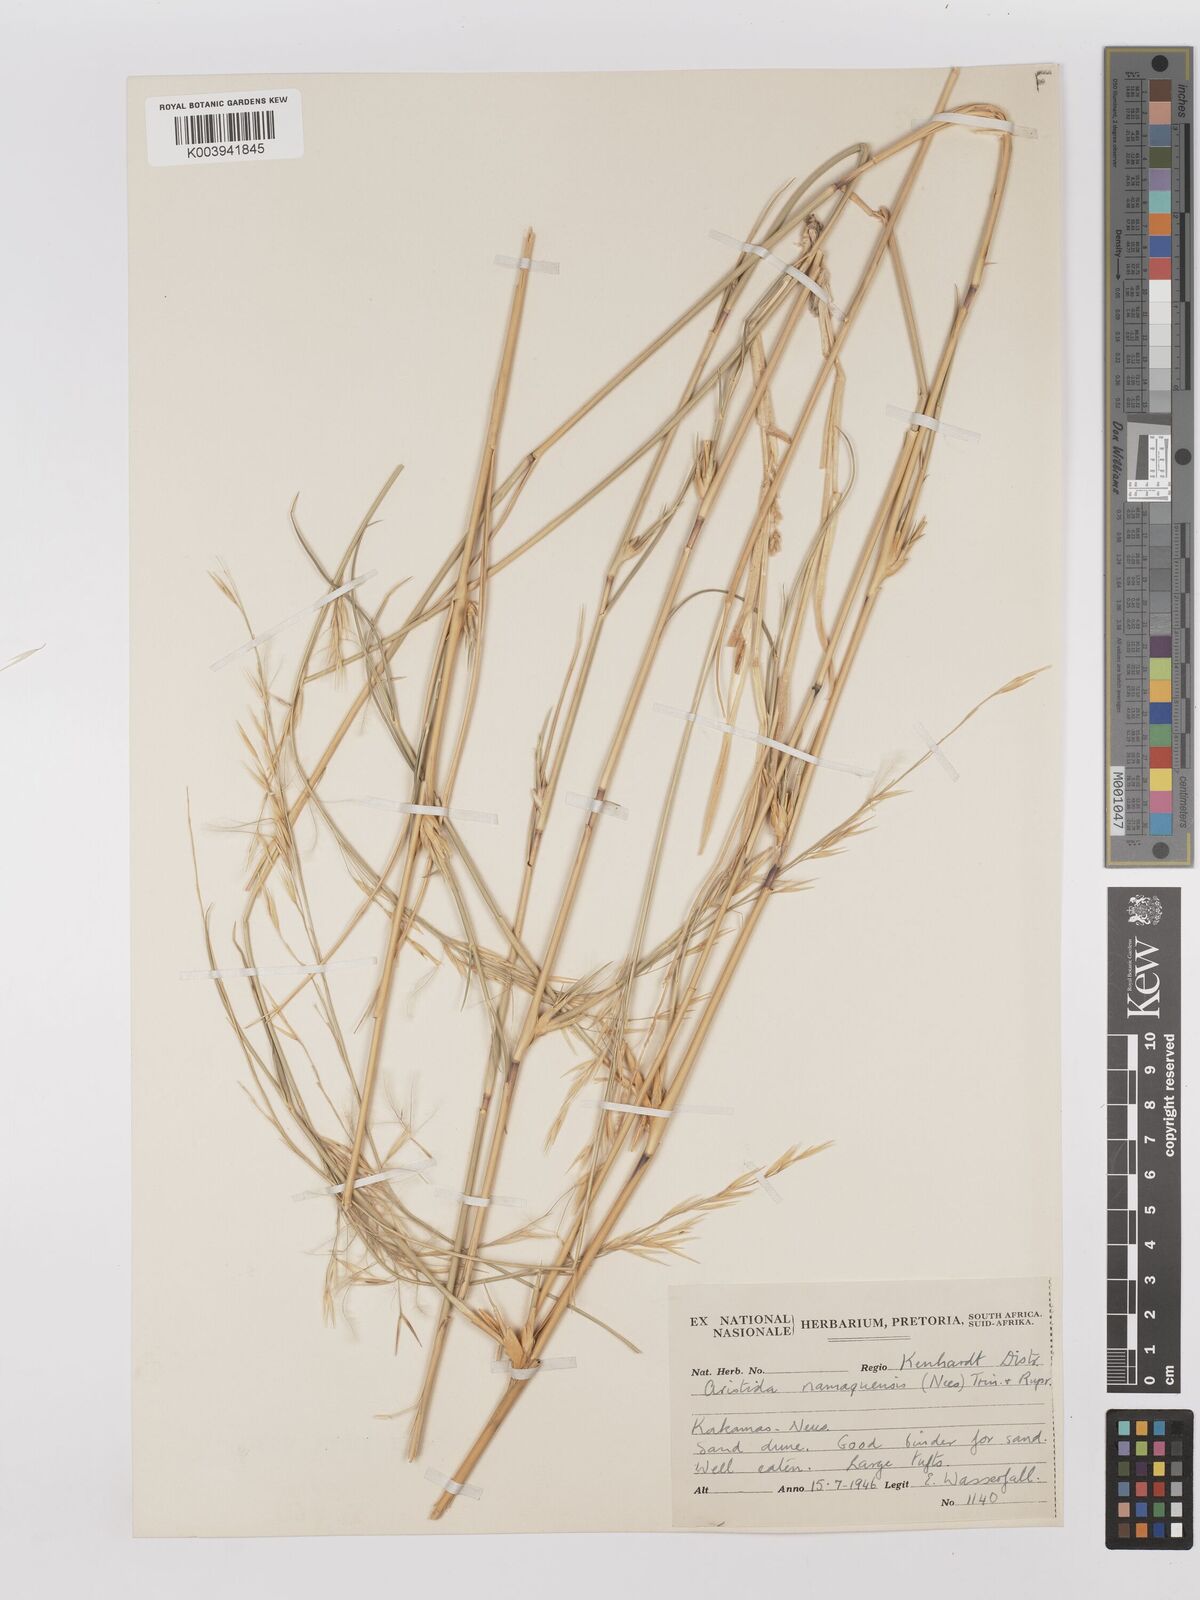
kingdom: Plantae
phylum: Tracheophyta
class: Liliopsida
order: Poales
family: Poaceae
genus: Stipagrostis
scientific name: Stipagrostis namaquensis
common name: River bushman grass
